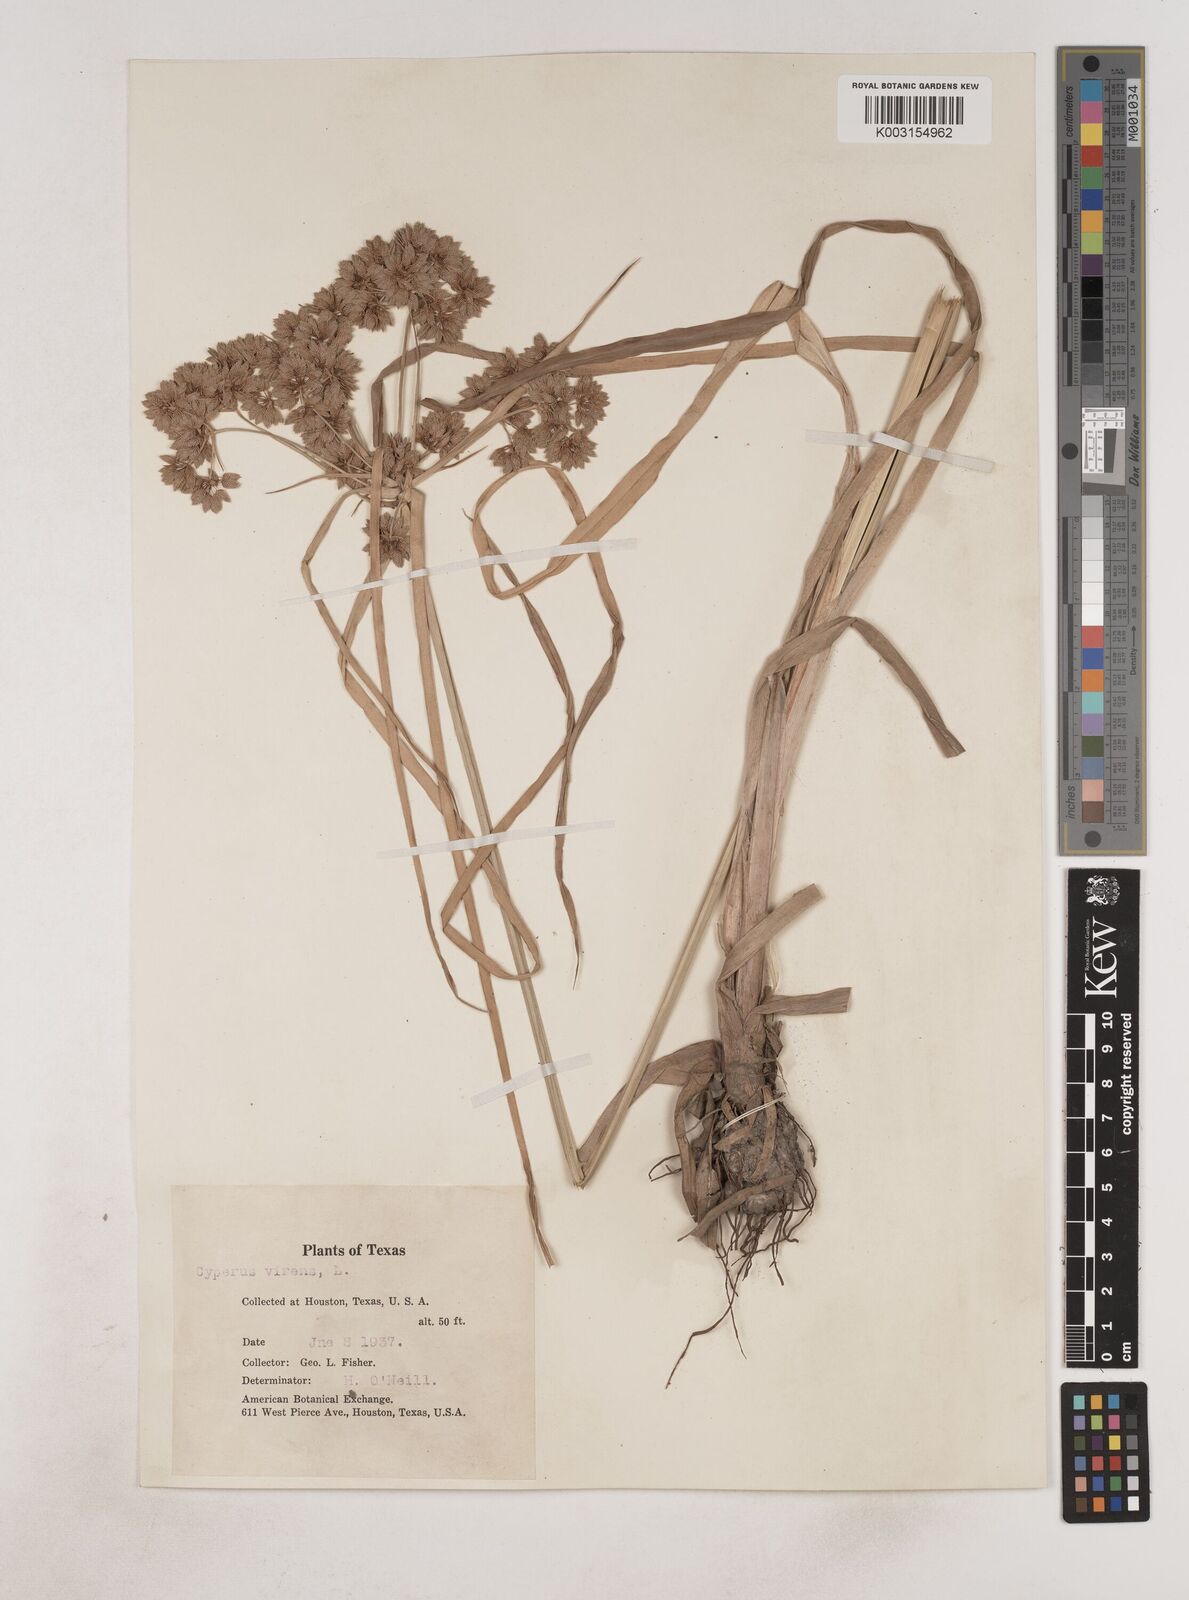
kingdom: Plantae
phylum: Tracheophyta
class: Liliopsida
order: Poales
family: Cyperaceae
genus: Cyperus
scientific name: Cyperus virens
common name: Green flatsedge
